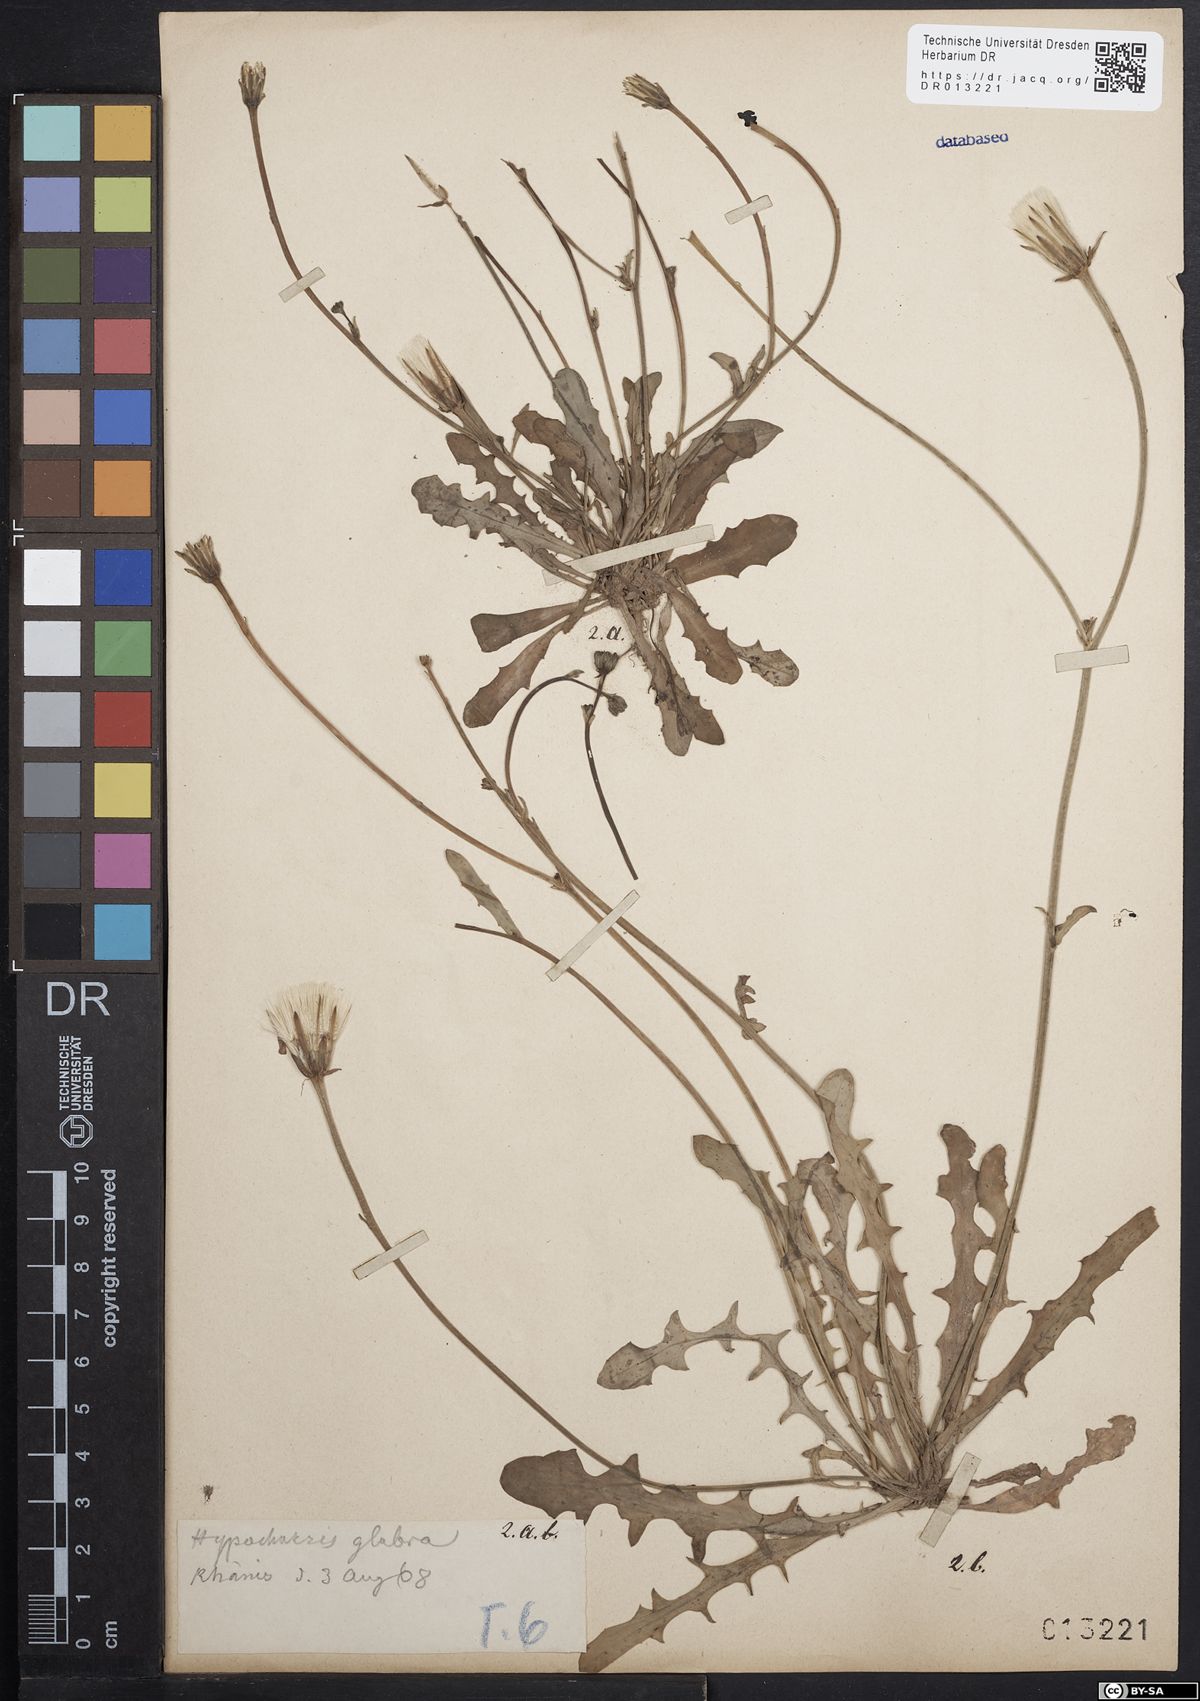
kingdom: Plantae
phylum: Tracheophyta
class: Magnoliopsida
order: Asterales
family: Asteraceae
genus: Hypochaeris
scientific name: Hypochaeris glabra
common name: Smooth catsear
